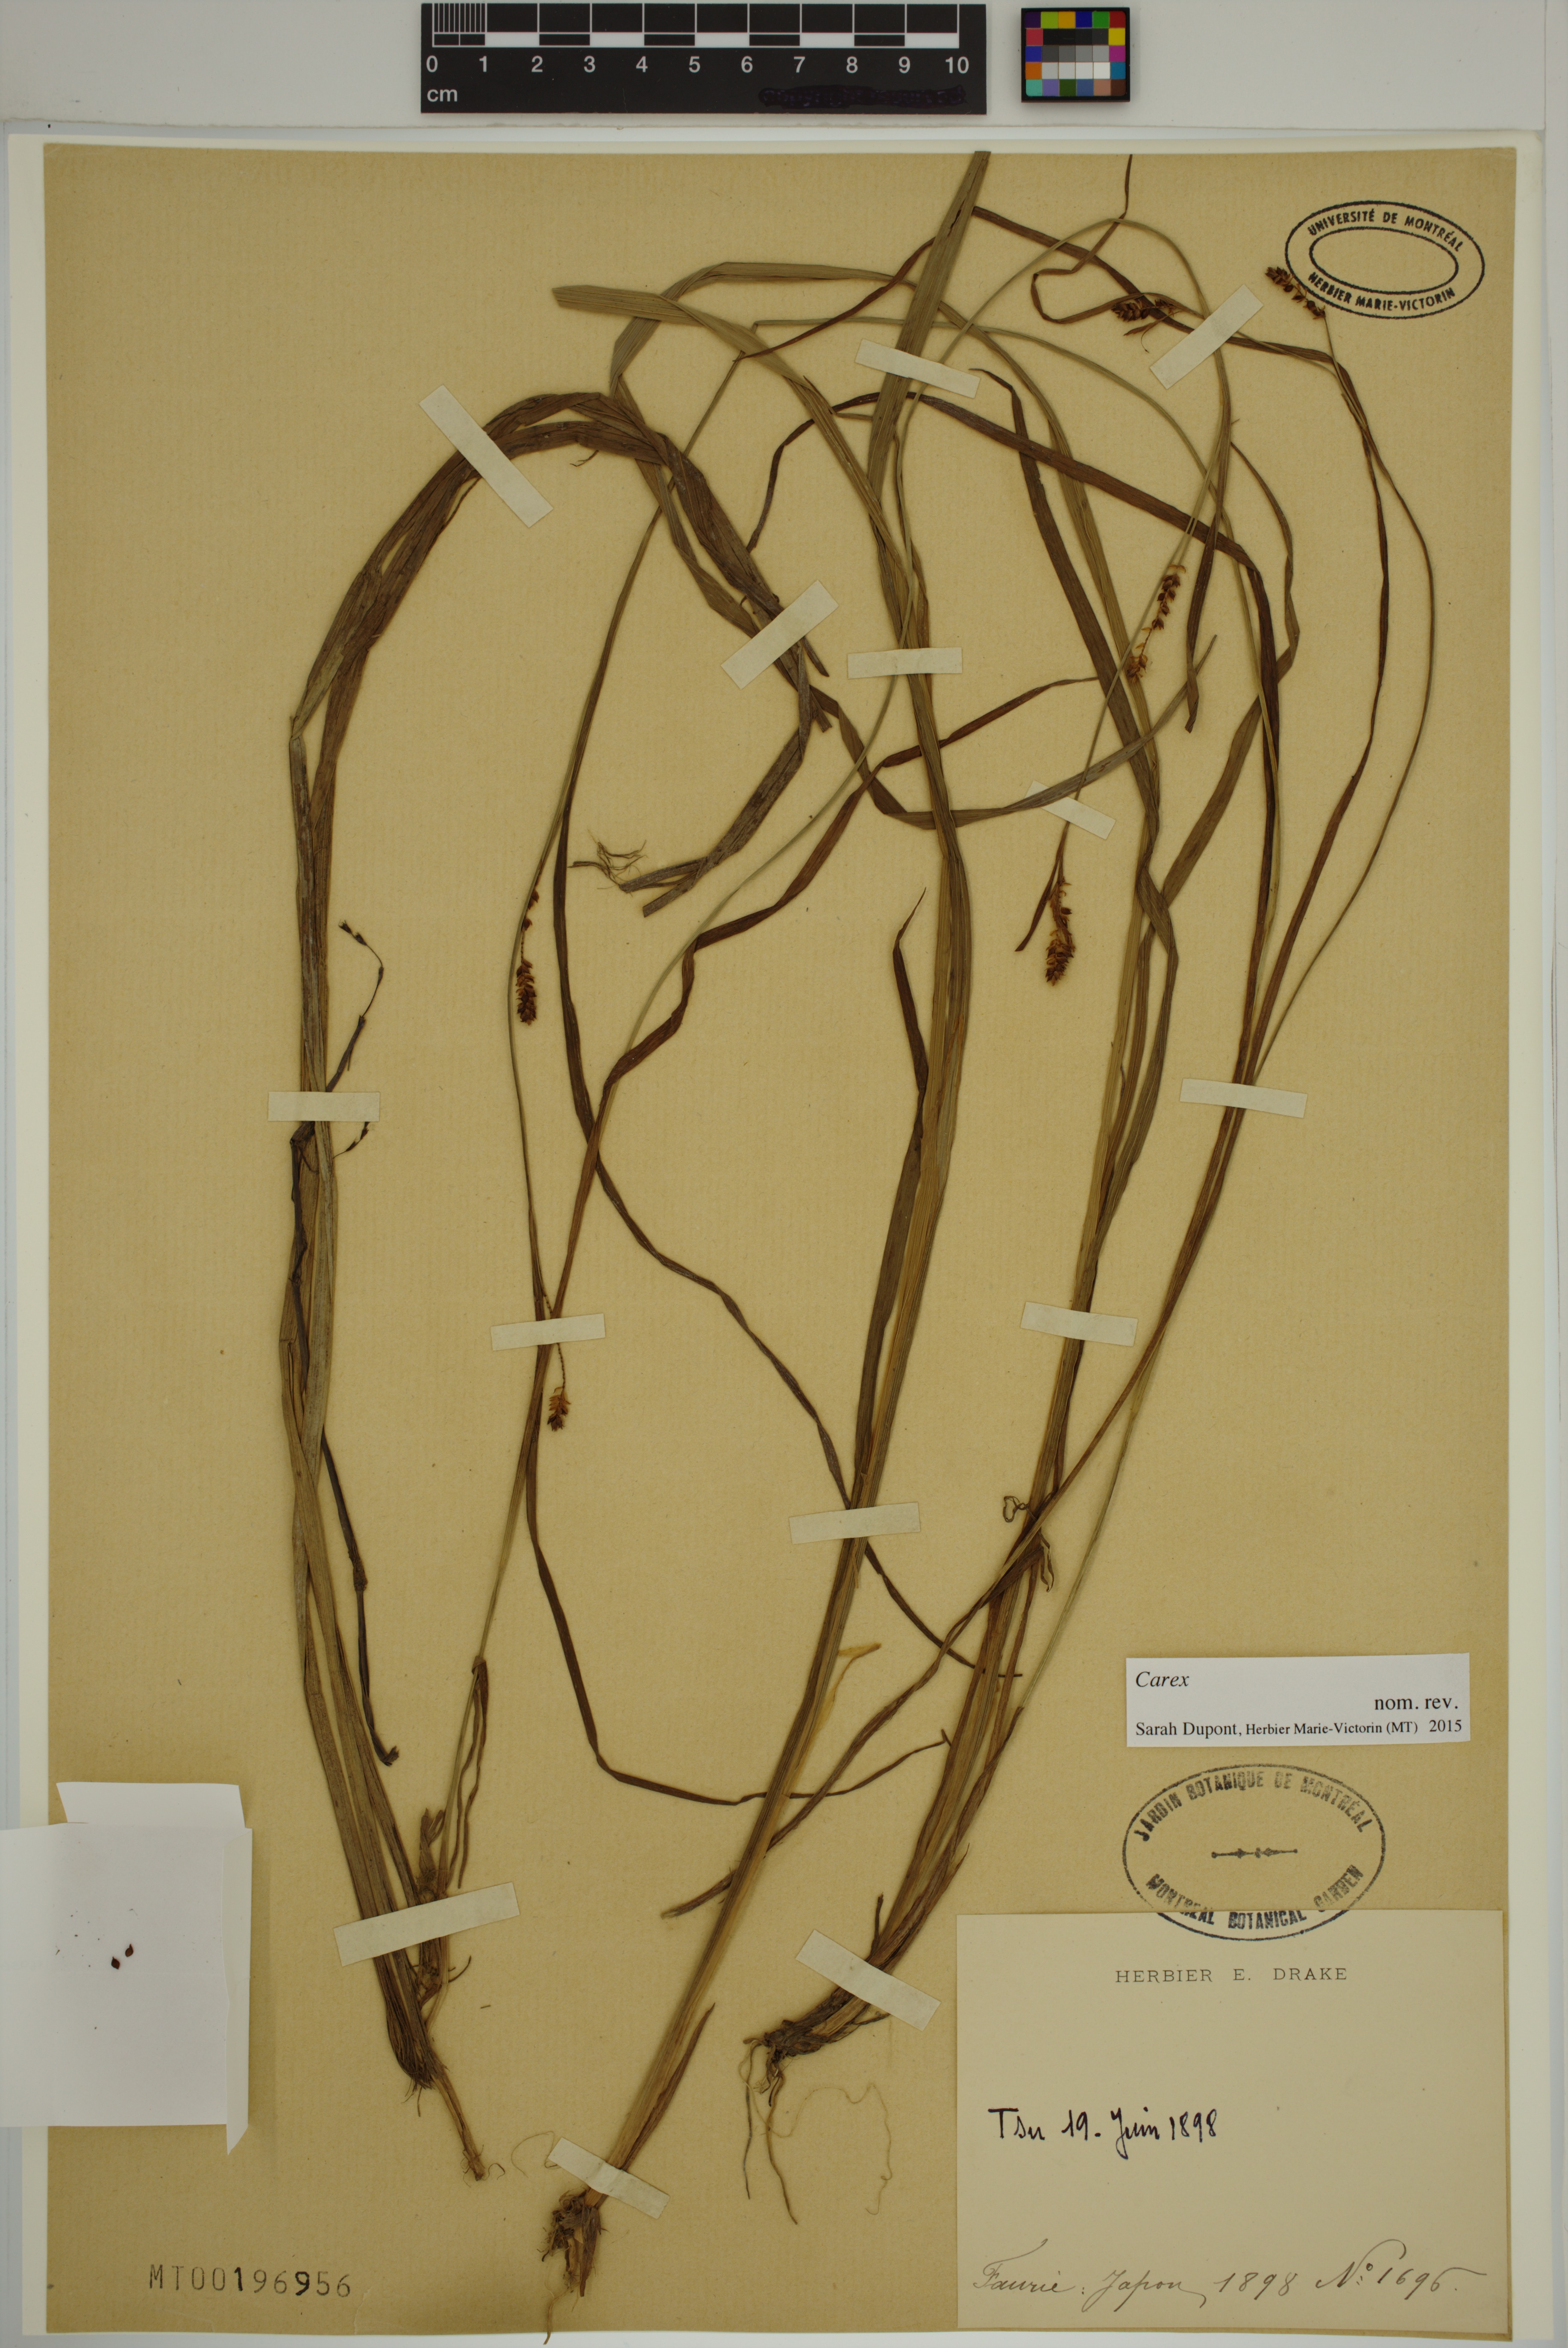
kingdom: Plantae
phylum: Tracheophyta
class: Liliopsida
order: Poales
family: Cyperaceae
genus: Carex
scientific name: Carex
